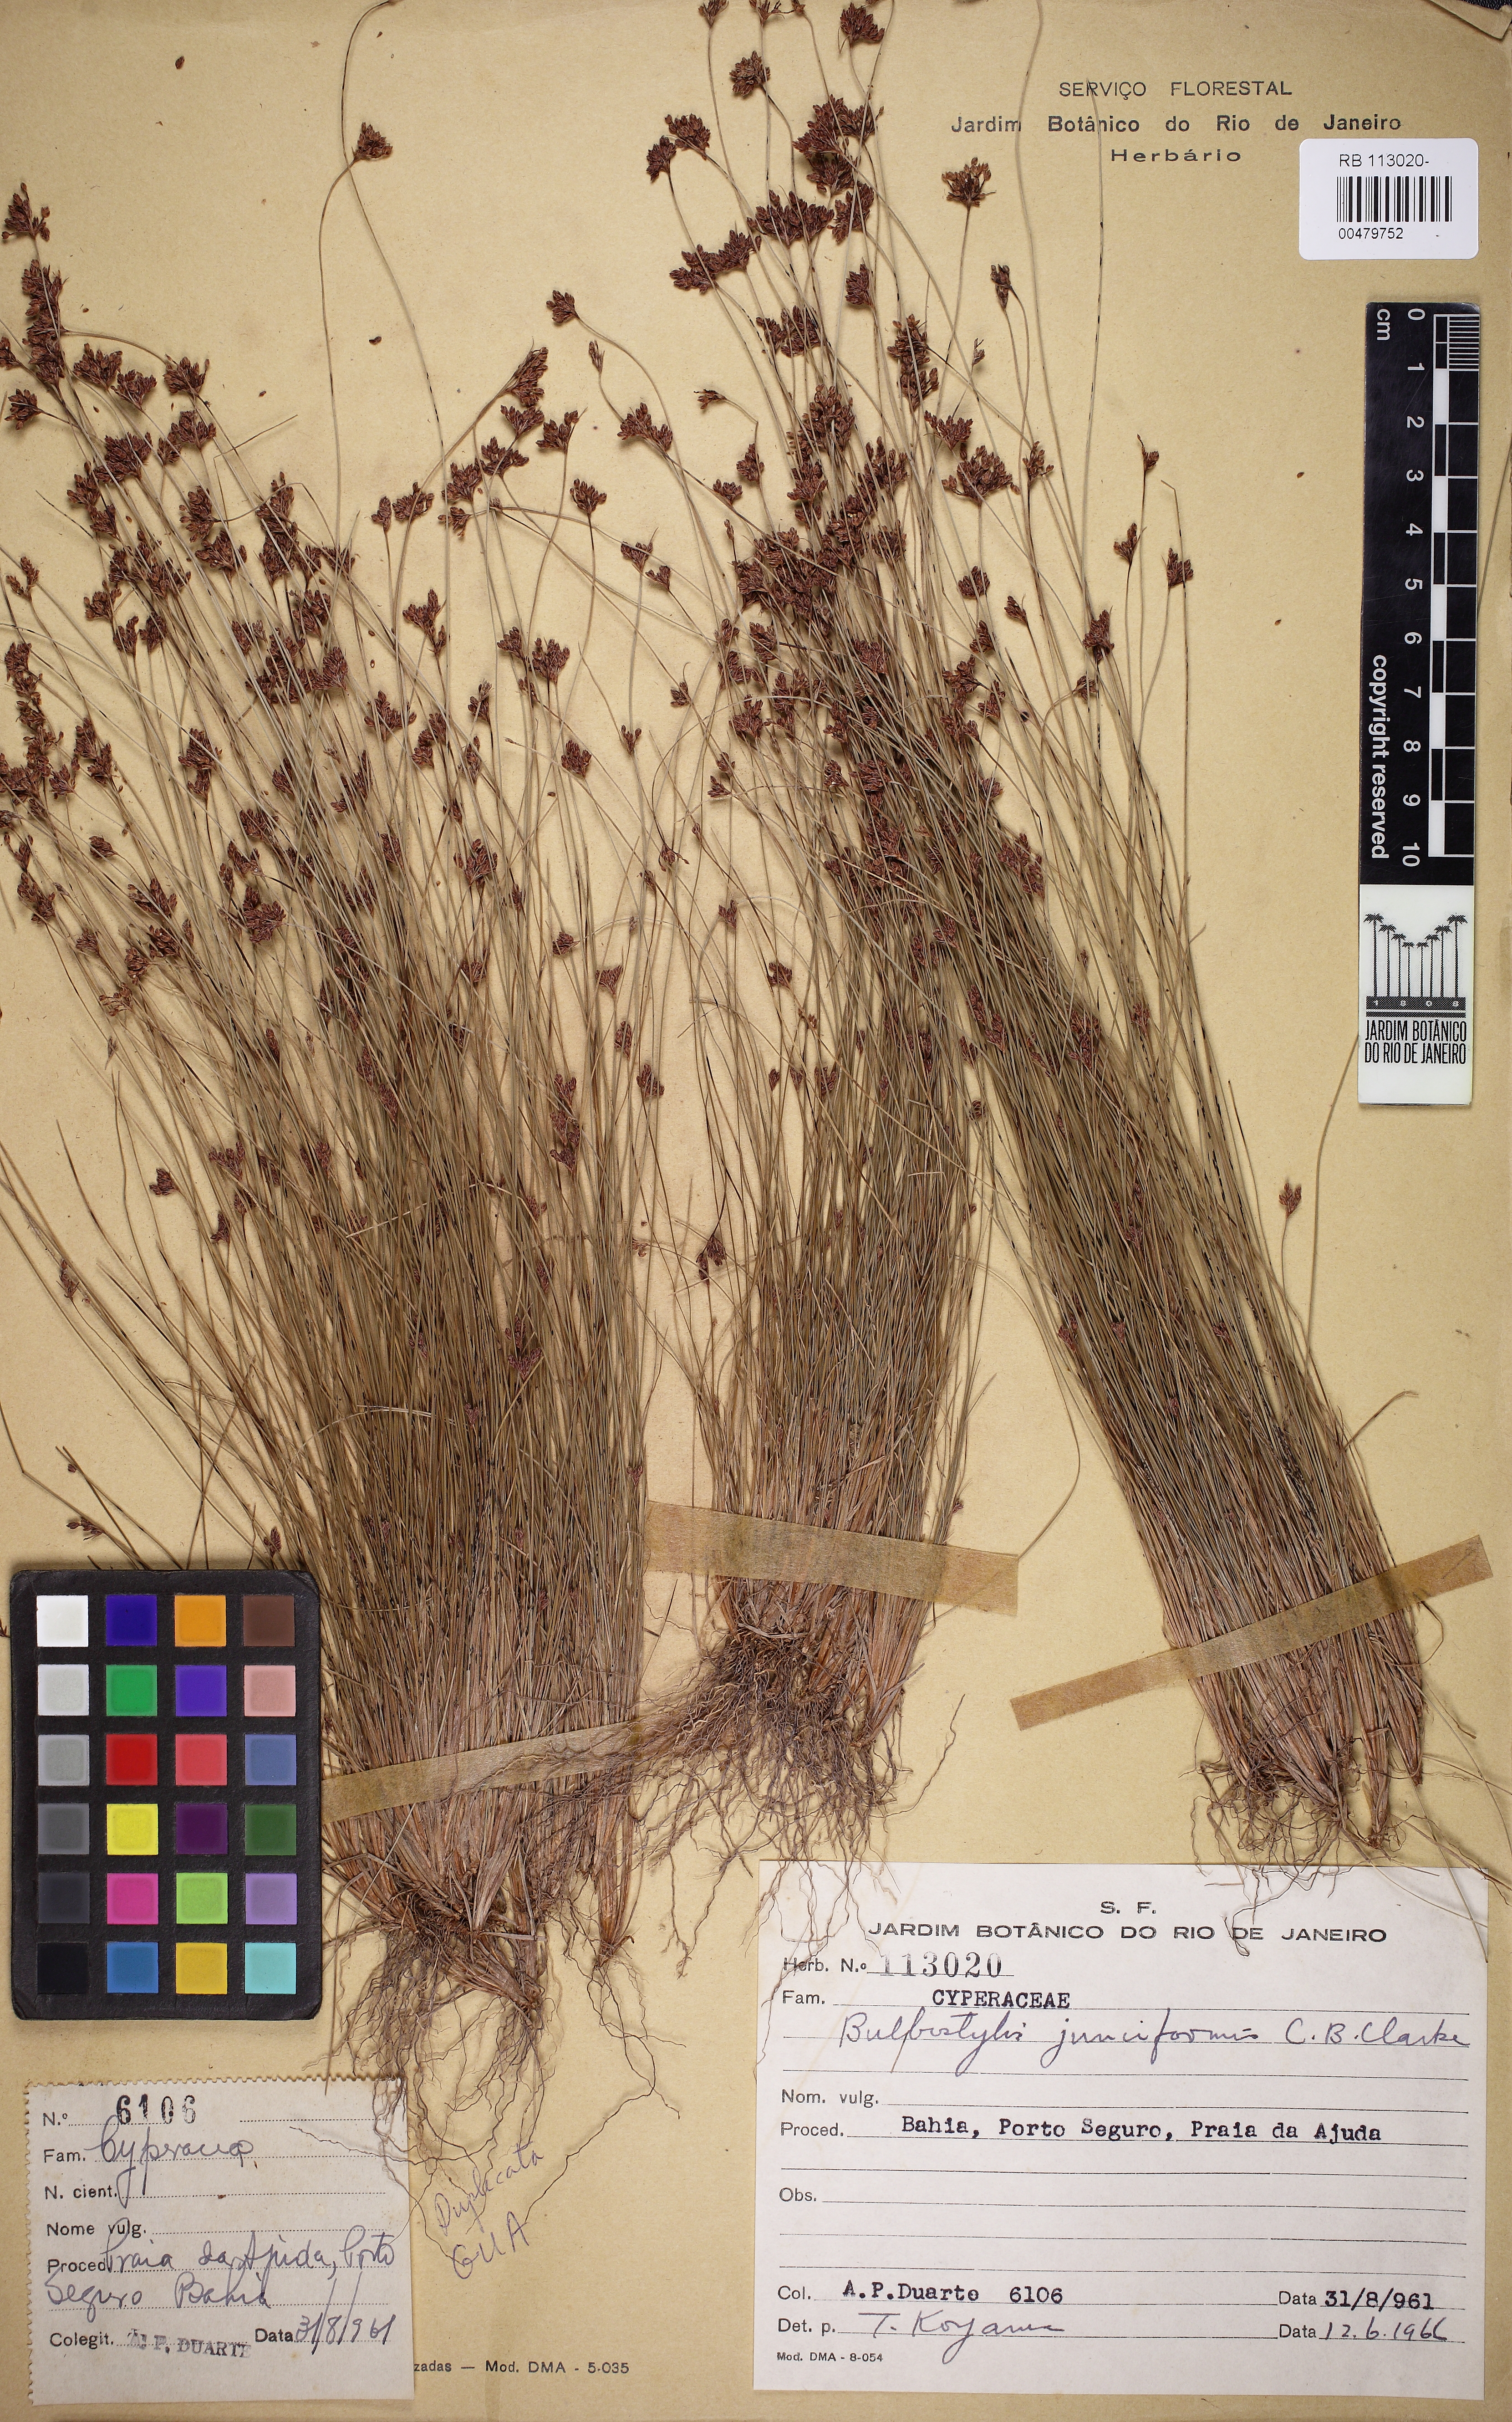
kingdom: Plantae
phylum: Tracheophyta
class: Liliopsida
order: Poales
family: Cyperaceae
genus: Bulbostylis
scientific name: Bulbostylis junciformis
